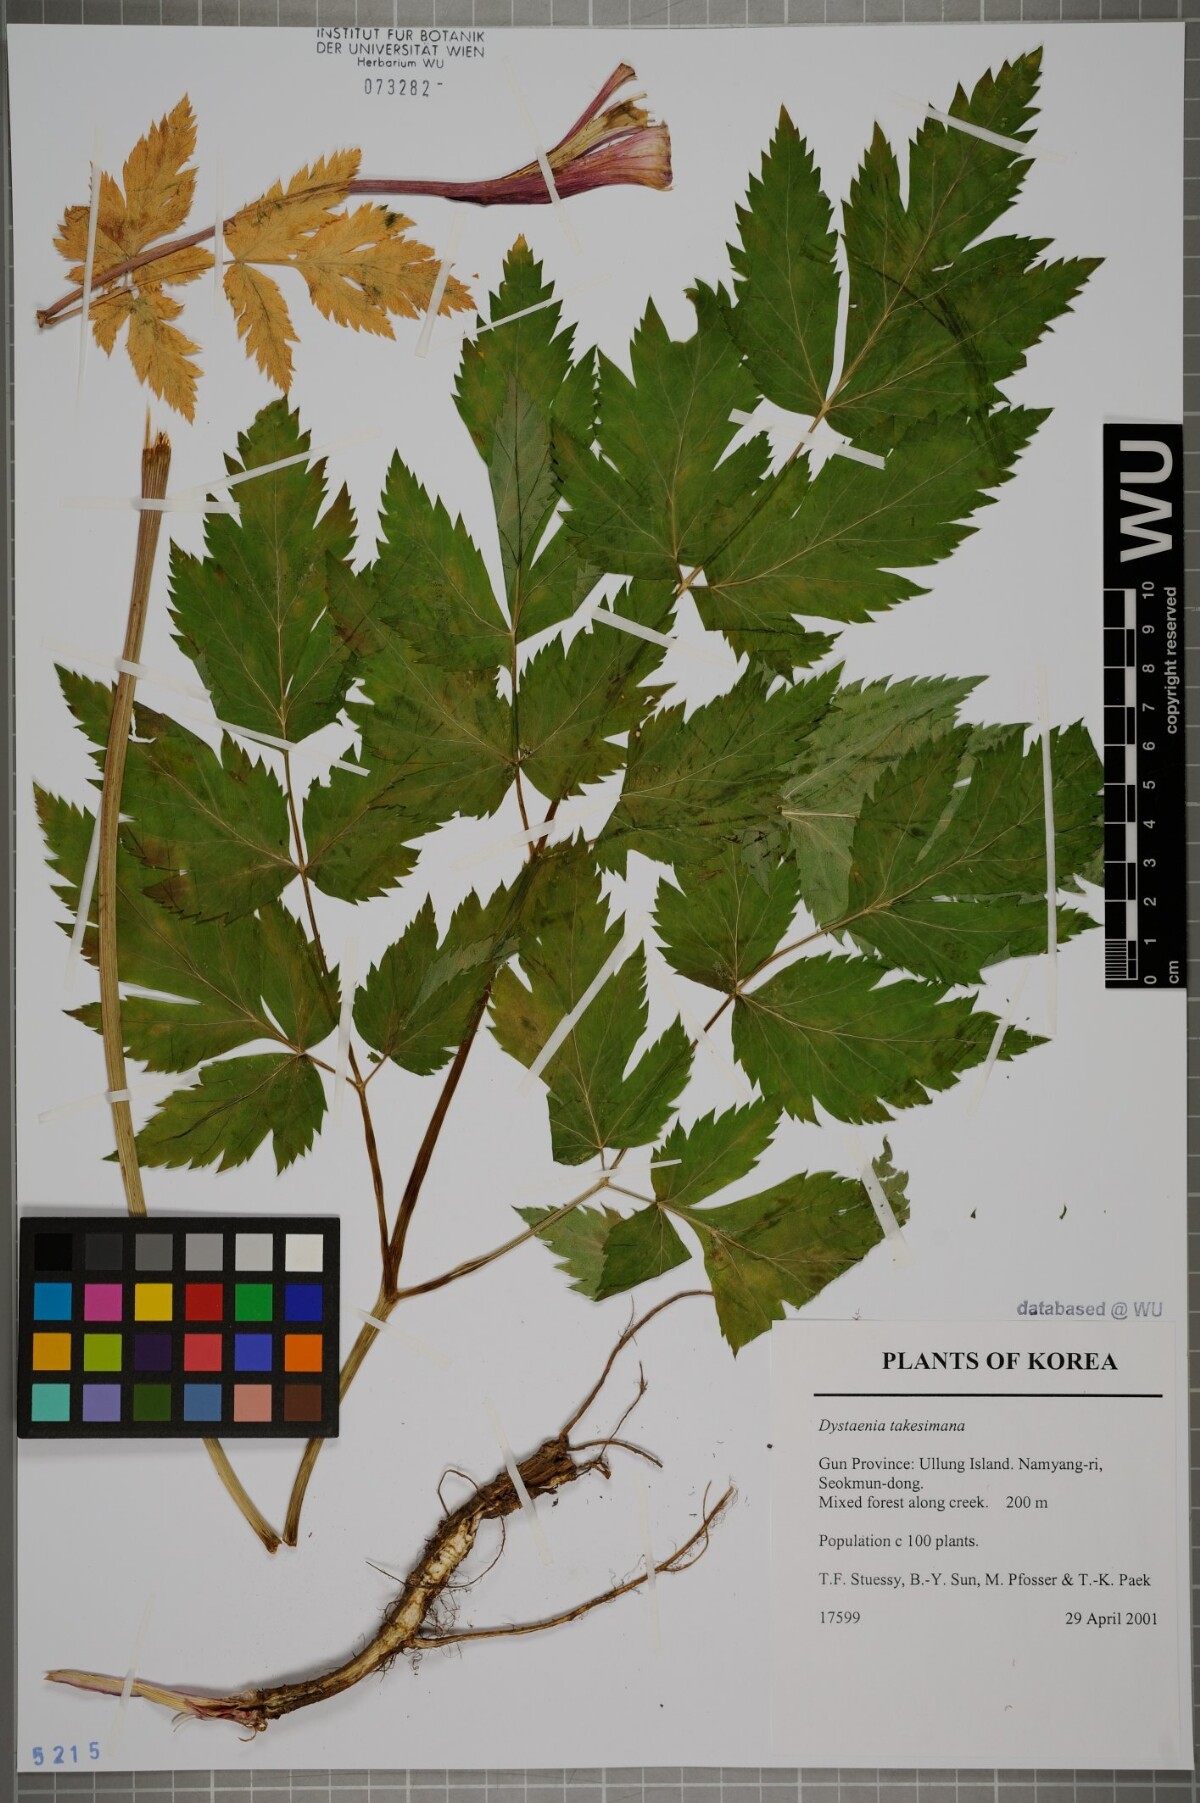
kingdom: Plantae
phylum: Tracheophyta
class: Magnoliopsida
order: Apiales
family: Apiaceae
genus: Dystaenia
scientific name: Dystaenia takeshimana
